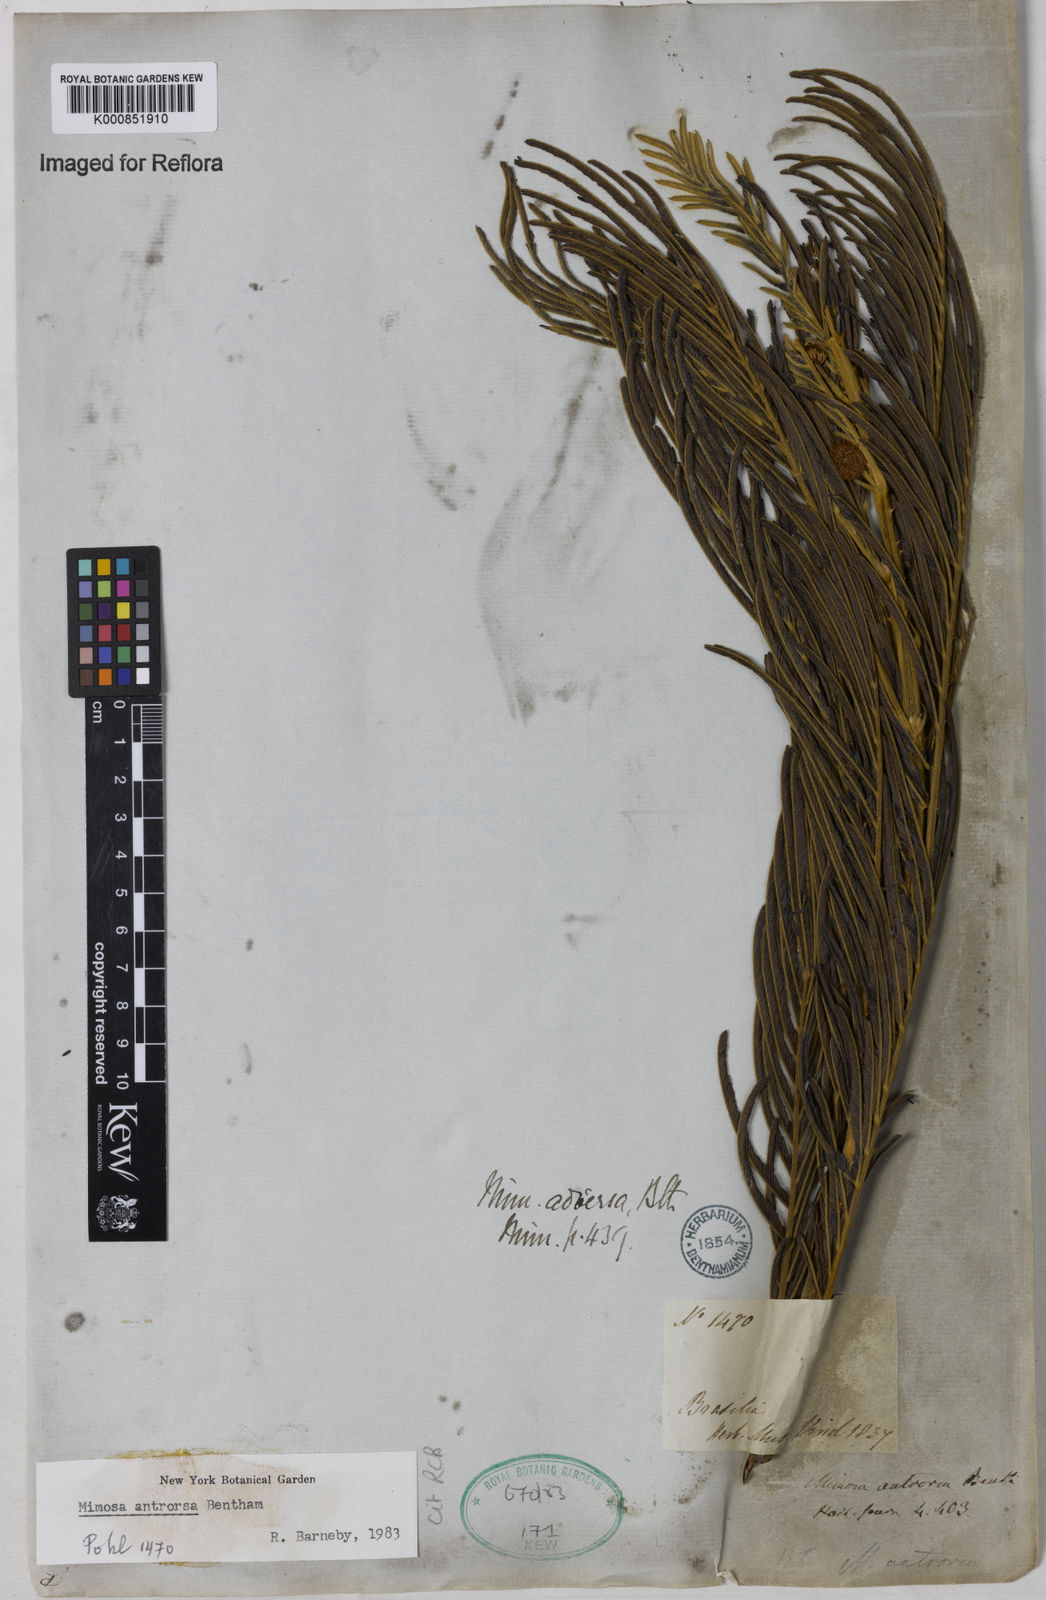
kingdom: Plantae
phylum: Tracheophyta
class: Magnoliopsida
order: Fabales
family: Fabaceae
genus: Mimosa
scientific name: Mimosa antrorsa
